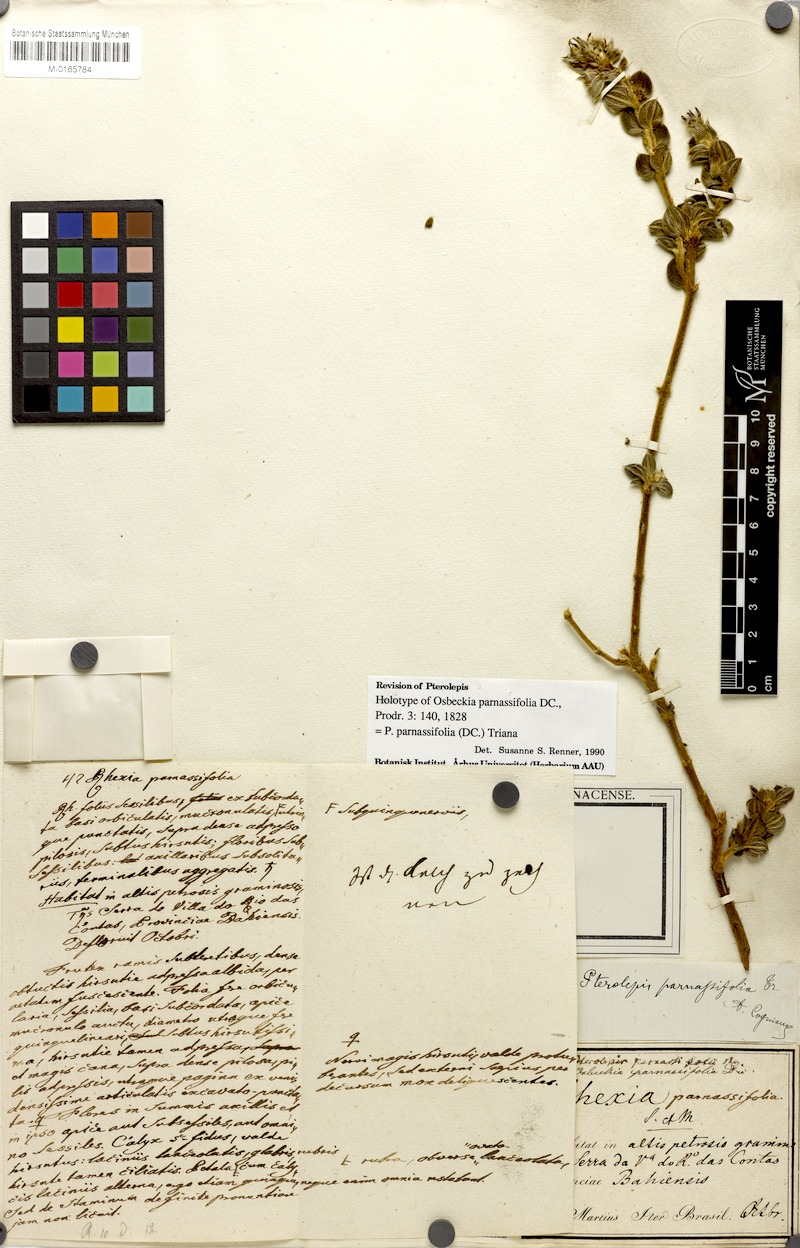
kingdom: Plantae
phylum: Tracheophyta
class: Magnoliopsida
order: Myrtales
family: Melastomataceae
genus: Pterolepis
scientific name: Pterolepis parnassiifolia
